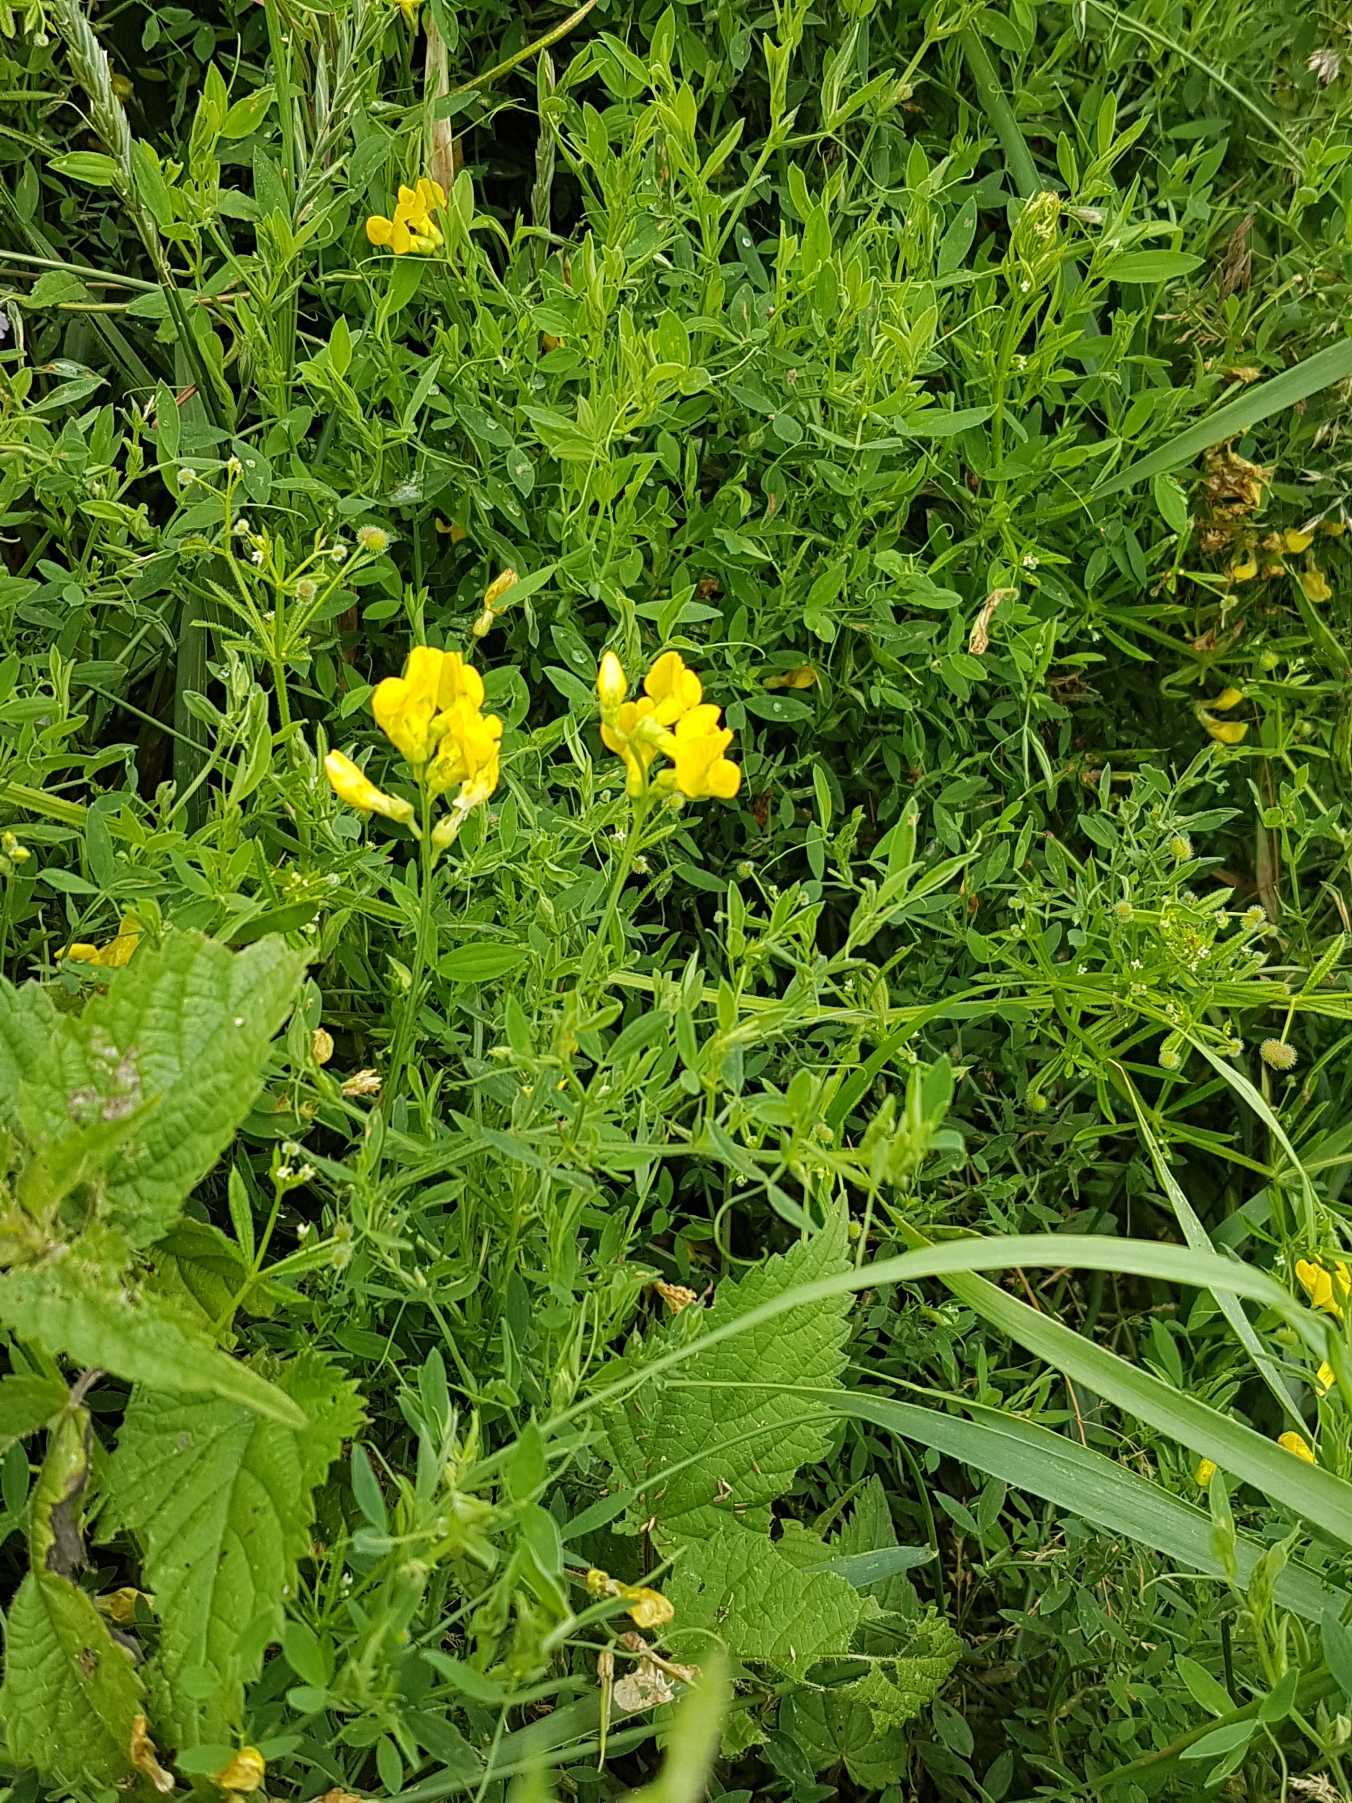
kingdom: Plantae
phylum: Tracheophyta
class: Magnoliopsida
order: Fabales
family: Fabaceae
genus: Lathyrus
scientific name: Lathyrus pratensis
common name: Gul fladbælg
